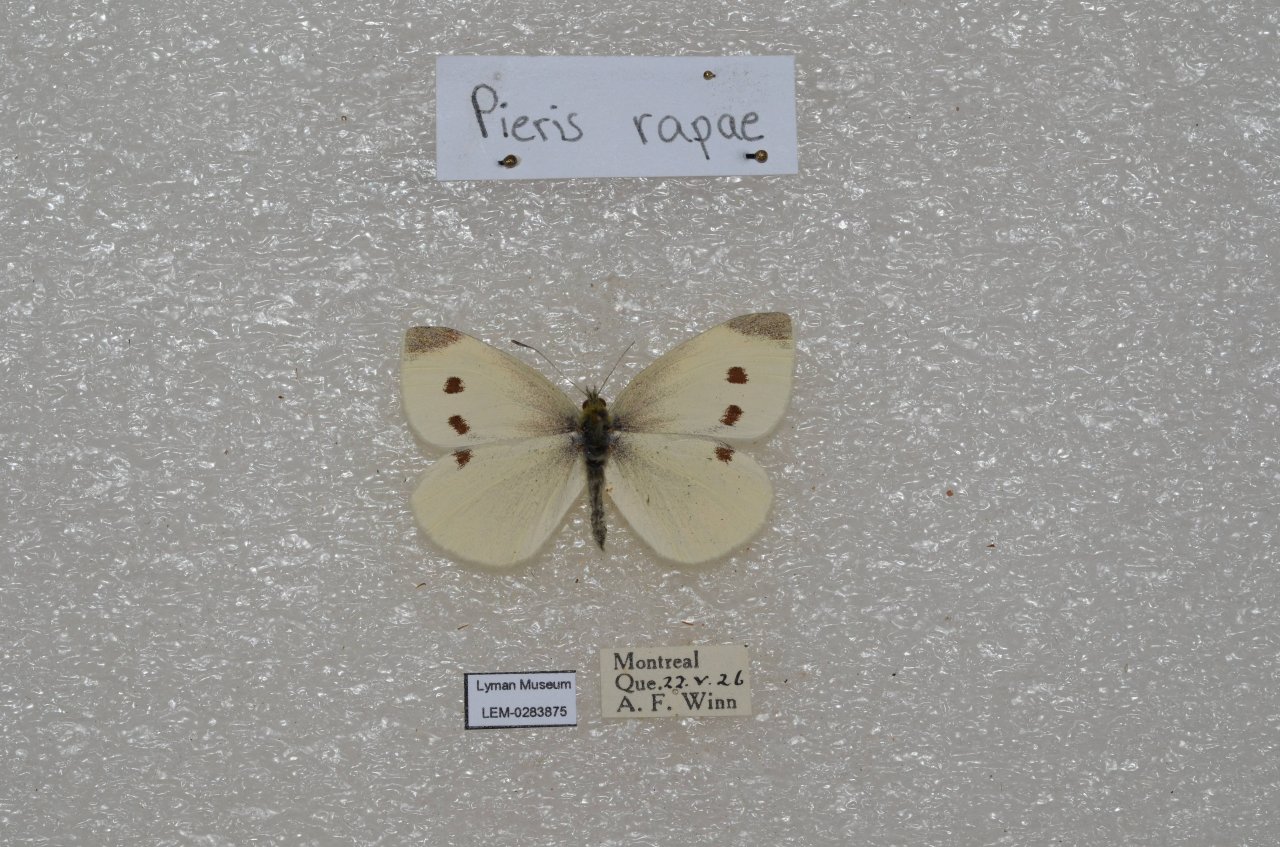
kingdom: Animalia
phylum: Arthropoda
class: Insecta
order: Lepidoptera
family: Pieridae
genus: Pieris
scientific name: Pieris rapae
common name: Cabbage White
